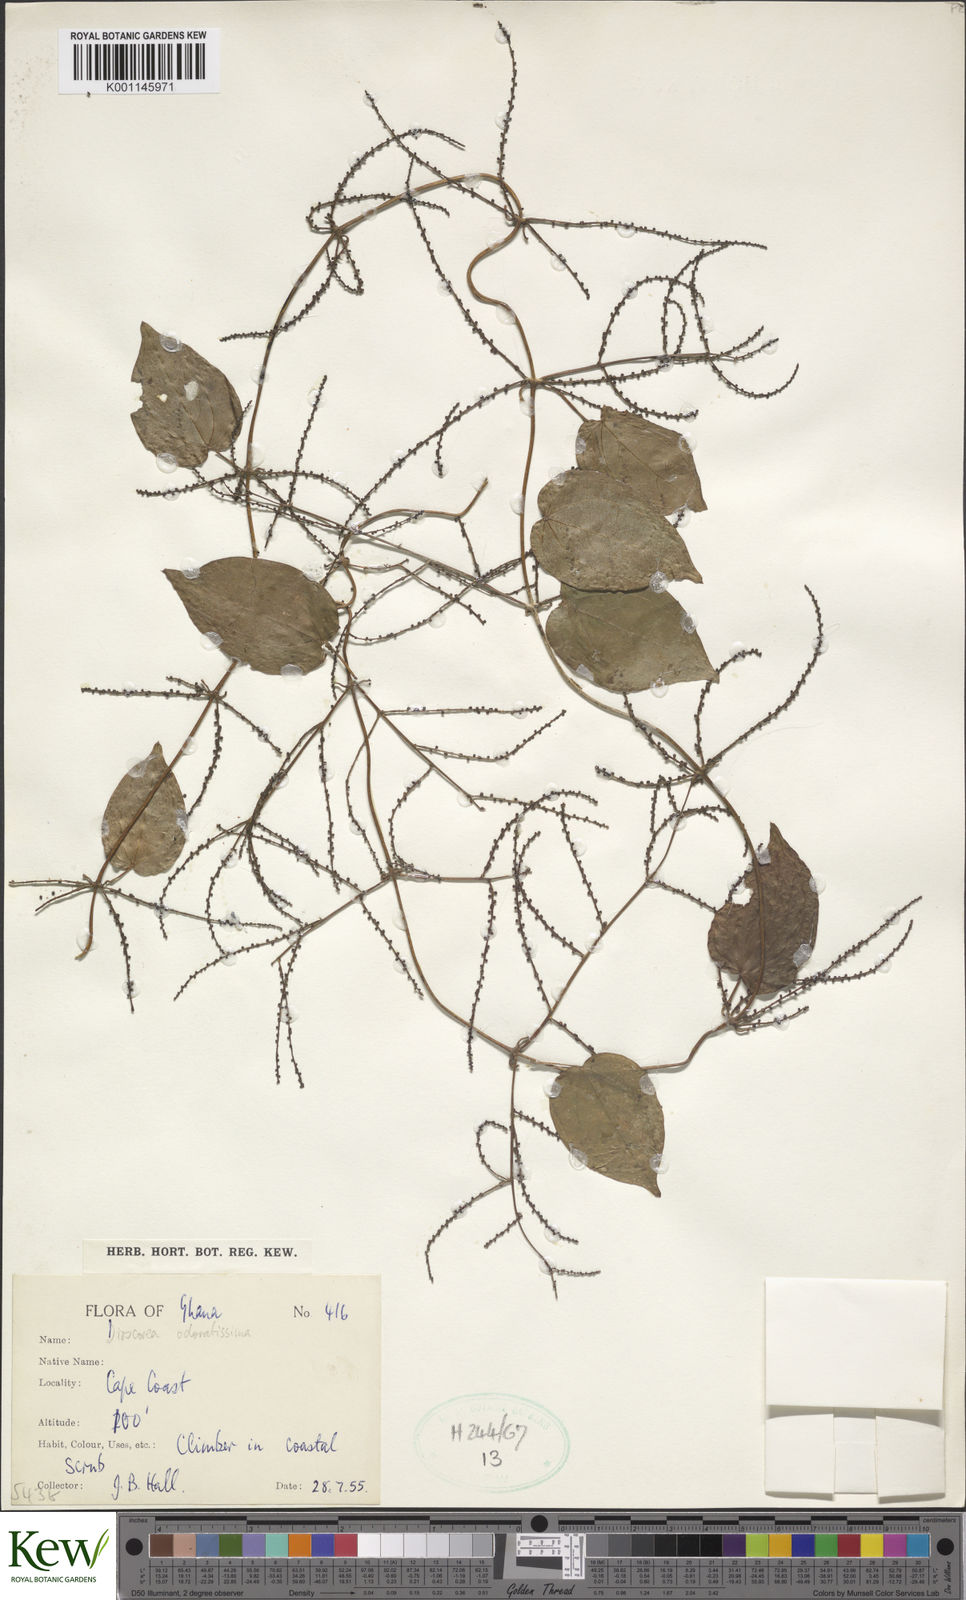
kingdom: Plantae
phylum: Tracheophyta
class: Liliopsida
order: Dioscoreales
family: Dioscoreaceae
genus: Dioscorea
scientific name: Dioscorea praehensilis
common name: Bush yam
